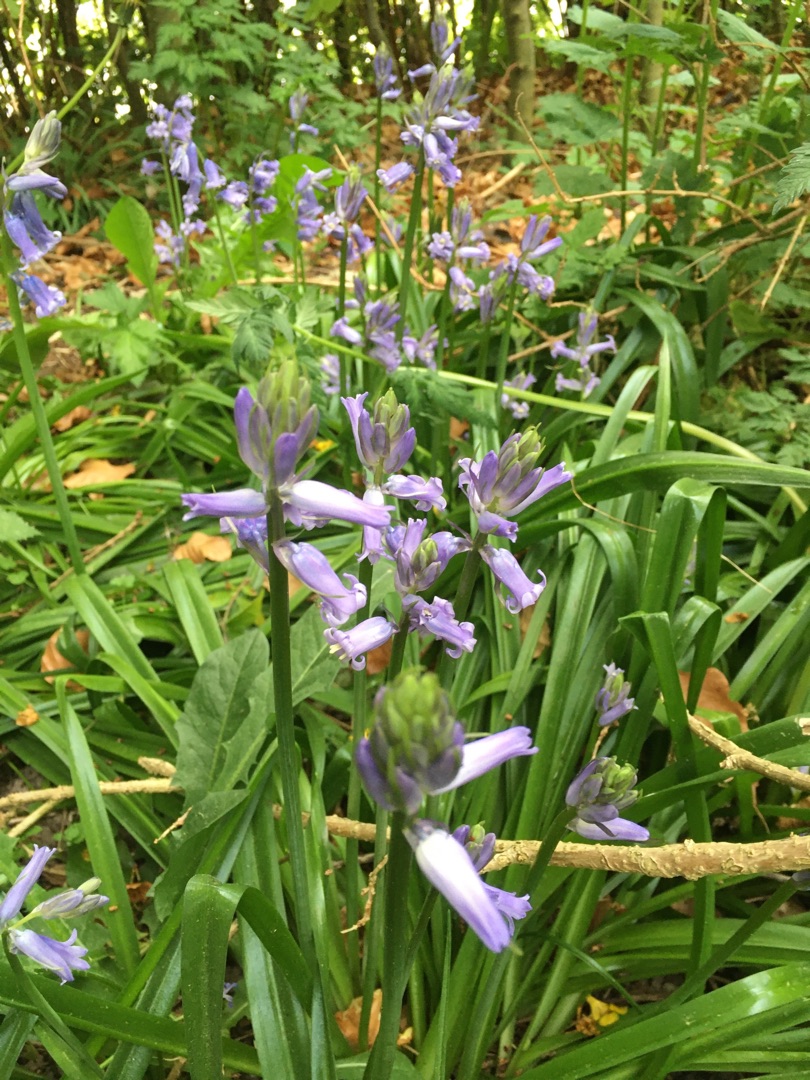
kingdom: Plantae
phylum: Tracheophyta
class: Liliopsida
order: Asparagales
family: Asparagaceae
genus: Hyacinthoides
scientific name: Hyacinthoides massartiana
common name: Hybrid-klokkeskilla
